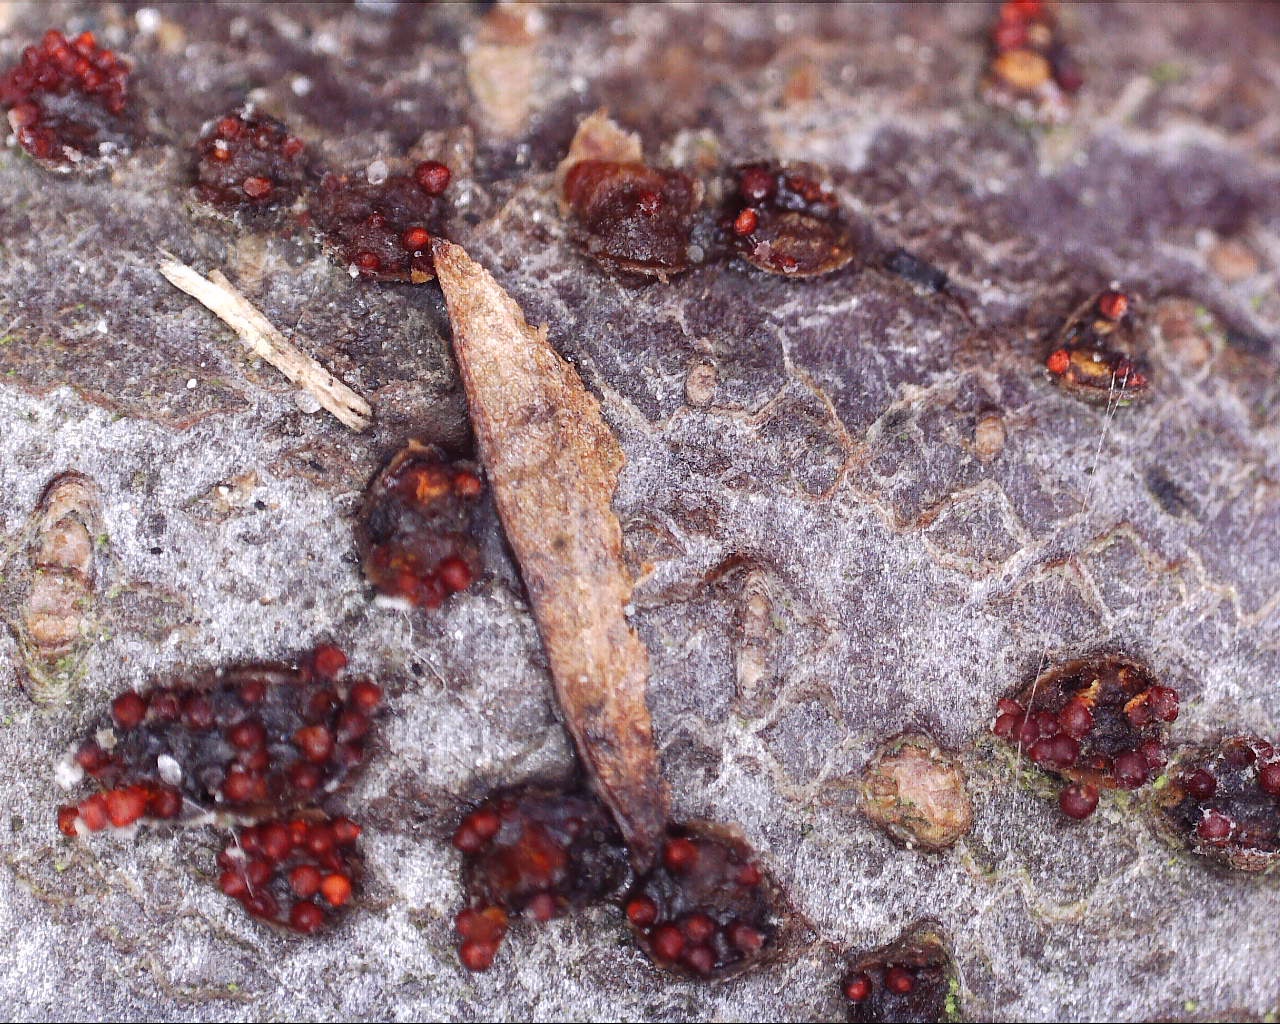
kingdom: Fungi
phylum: Ascomycota
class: Sordariomycetes
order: Hypocreales
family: Nectriaceae
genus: Neonectria
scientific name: Neonectria coccinea
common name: bøgebark-cinnobersvamp
